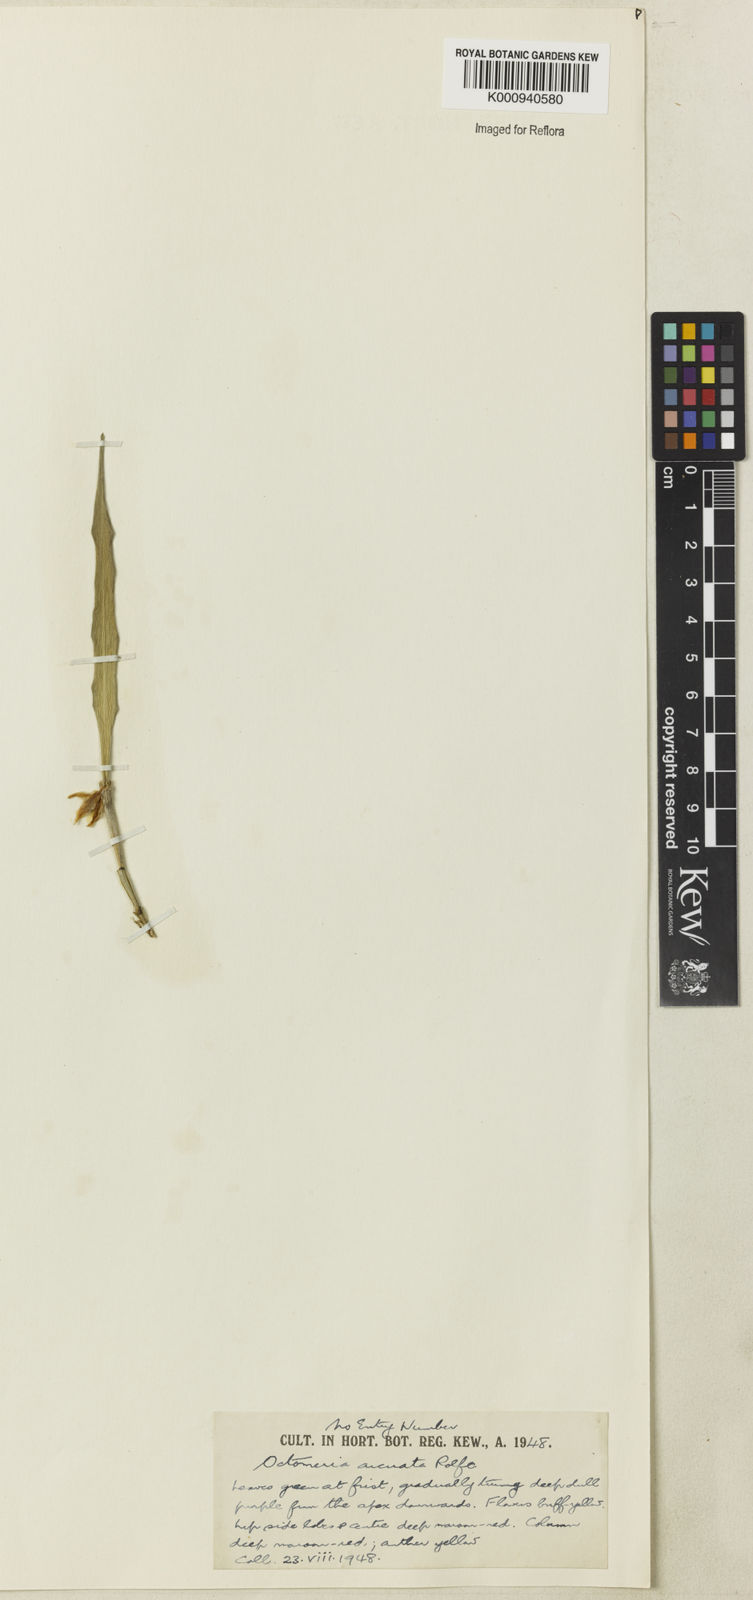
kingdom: Plantae
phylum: Tracheophyta
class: Liliopsida
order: Asparagales
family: Orchidaceae
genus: Octomeria
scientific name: Octomeria grandiflora
